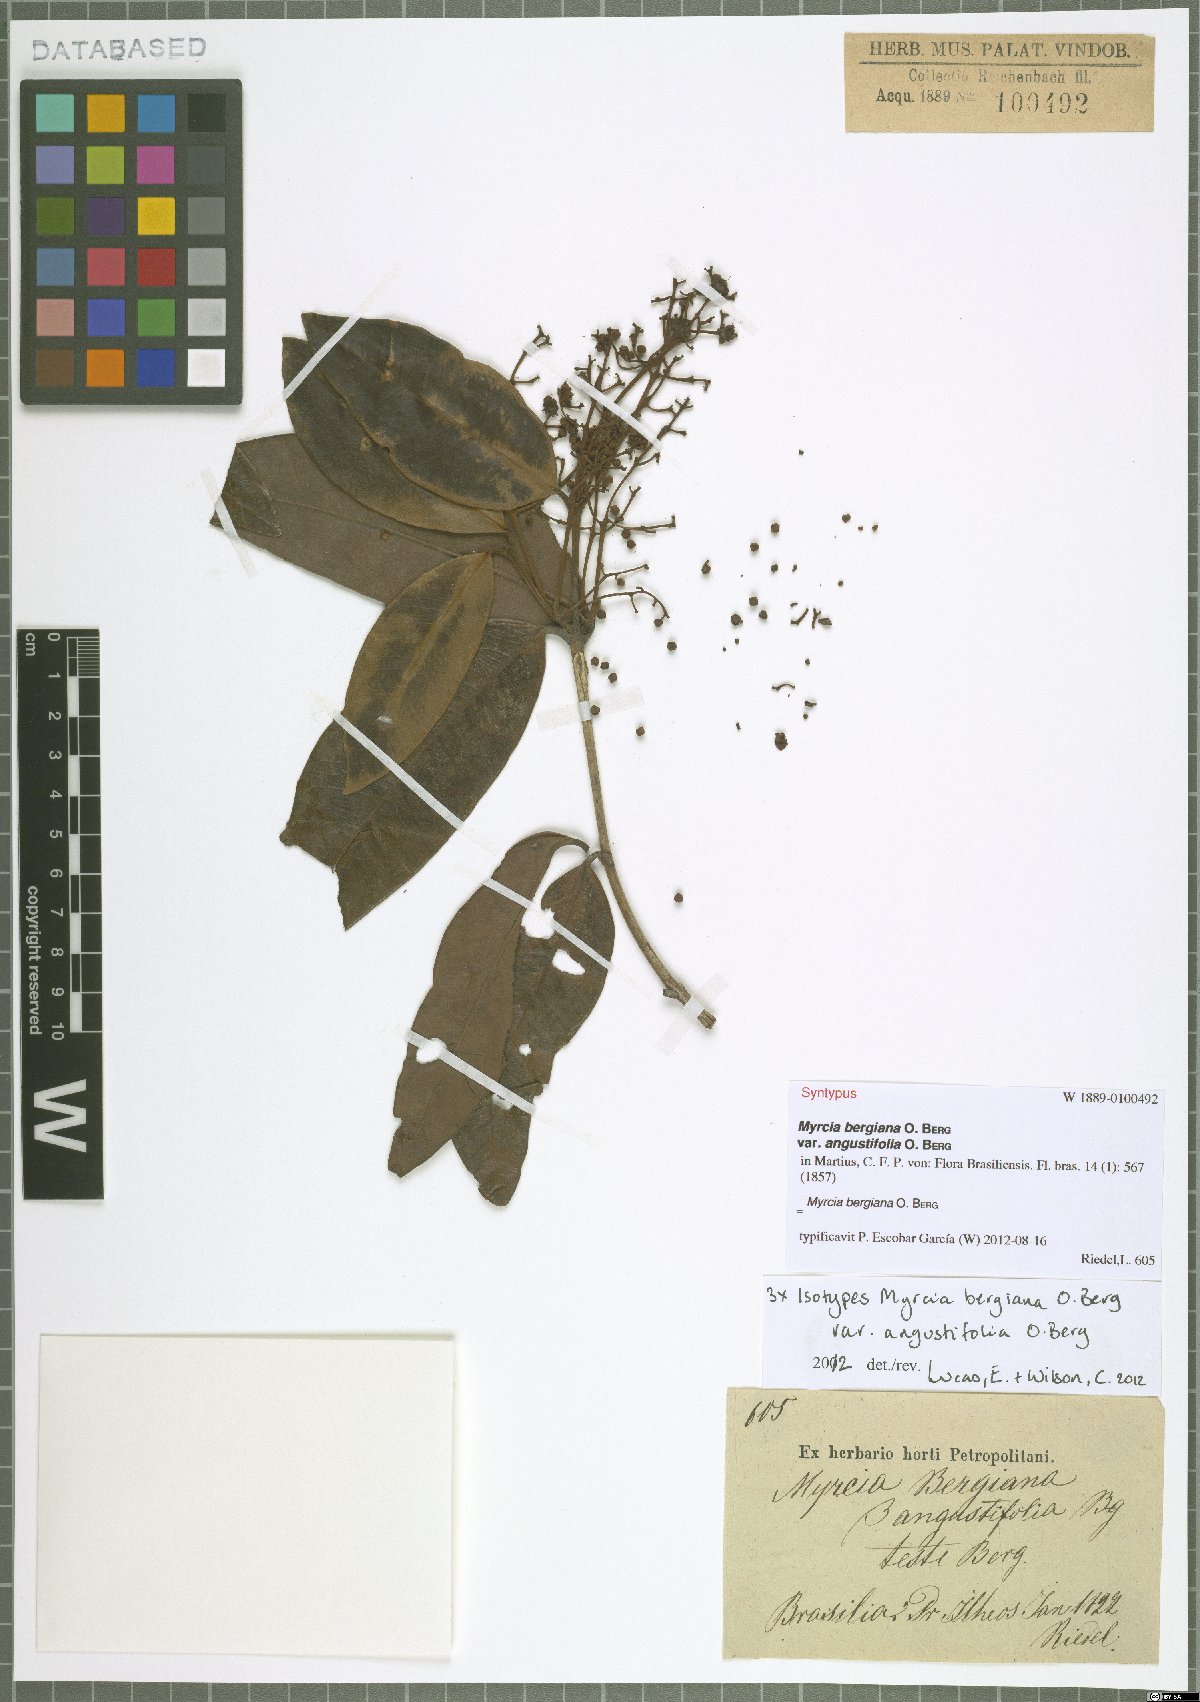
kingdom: Plantae
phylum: Tracheophyta
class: Magnoliopsida
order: Myrtales
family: Myrtaceae
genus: Myrcia
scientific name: Myrcia bergiana
